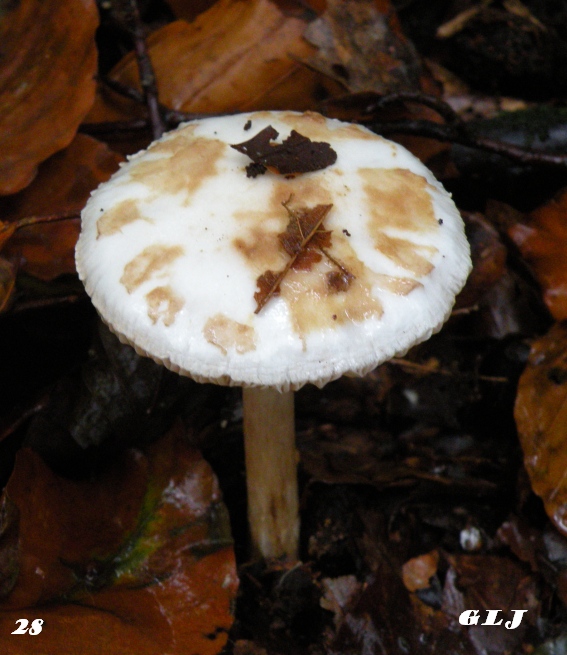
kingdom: Fungi
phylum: Basidiomycota
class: Agaricomycetes
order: Agaricales
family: Amanitaceae
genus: Amanita
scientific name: Amanita citrina
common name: False death-cap
